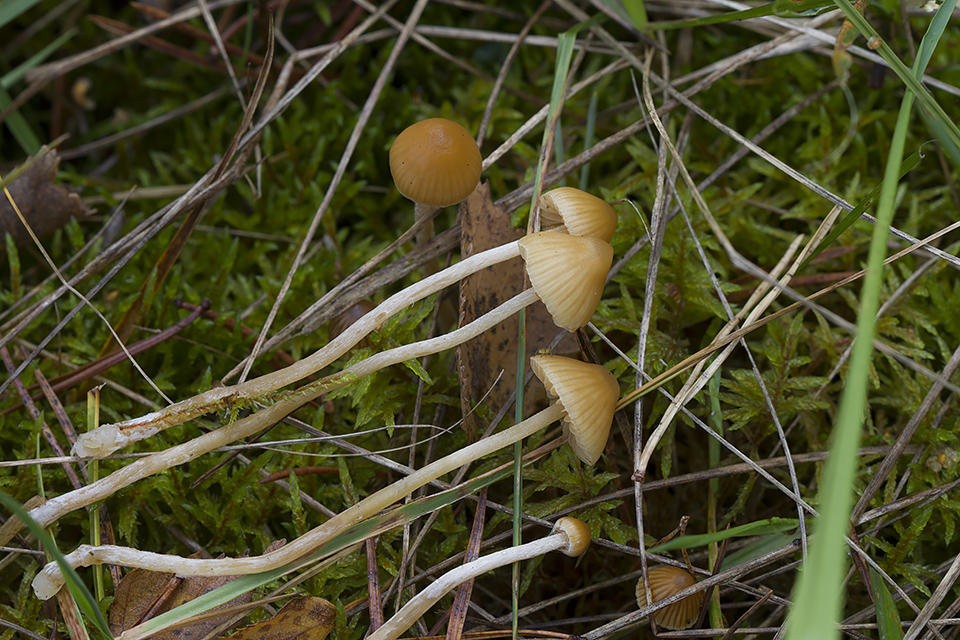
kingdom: Fungi
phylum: Basidiomycota
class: Agaricomycetes
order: Agaricales
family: Hymenogastraceae
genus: Galerina
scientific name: Galerina clavata
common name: kær-hjelmhat
